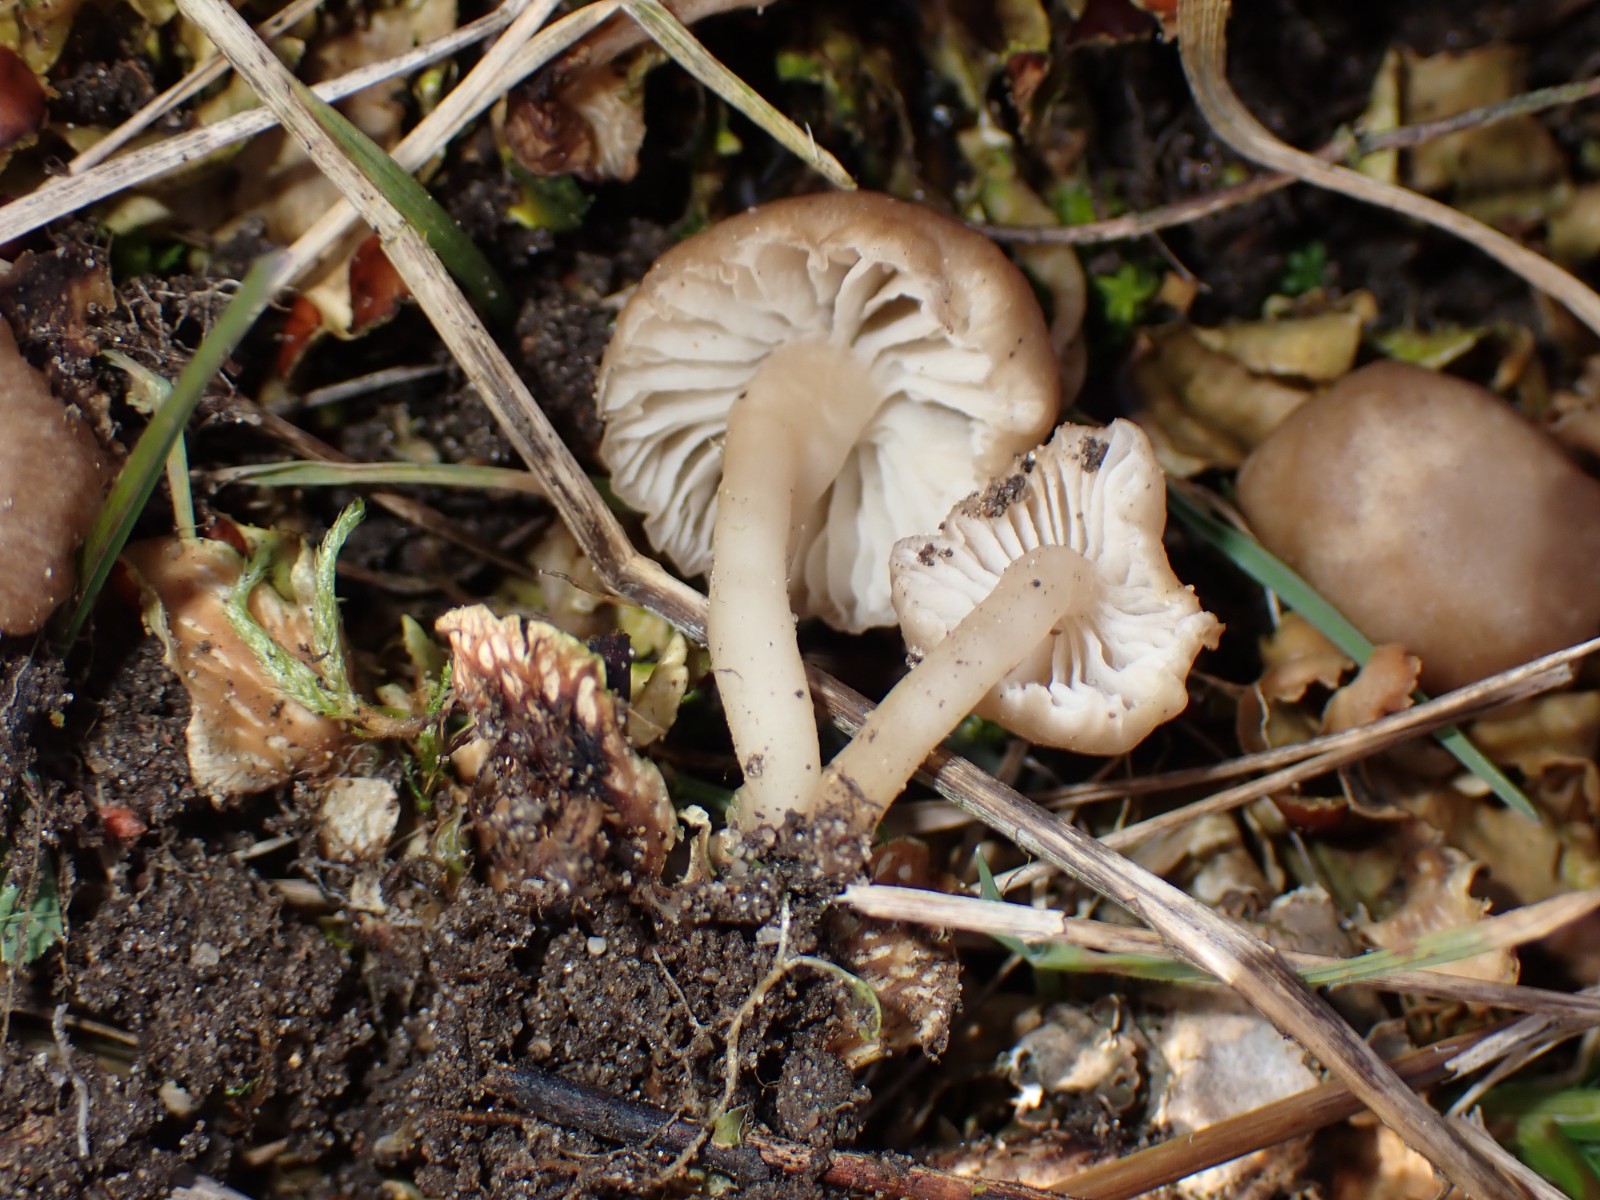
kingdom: Fungi
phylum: Basidiomycota
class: Agaricomycetes
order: Agaricales
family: Tricholomataceae
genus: Gamundia
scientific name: Gamundia xerophila
